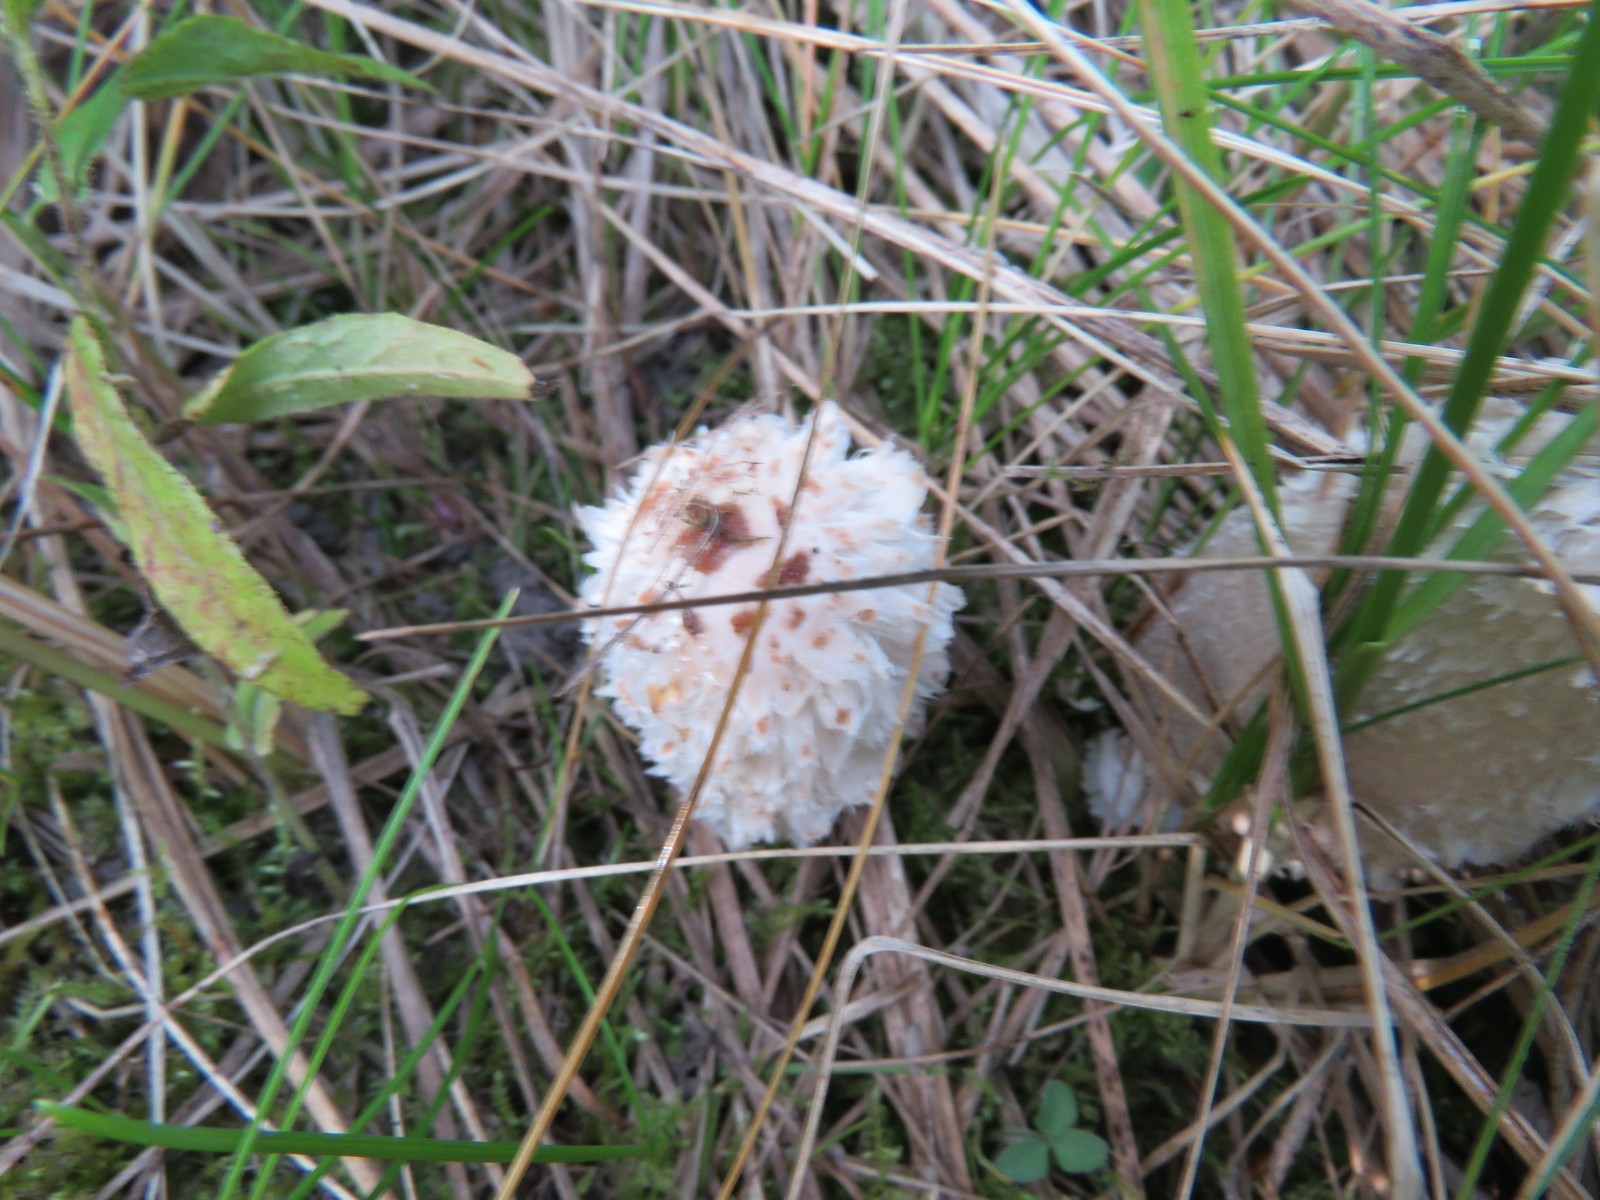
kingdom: Fungi
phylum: Basidiomycota
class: Agaricomycetes
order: Agaricales
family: Agaricaceae
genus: Coprinus
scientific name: Coprinus comatus
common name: stor parykhat
